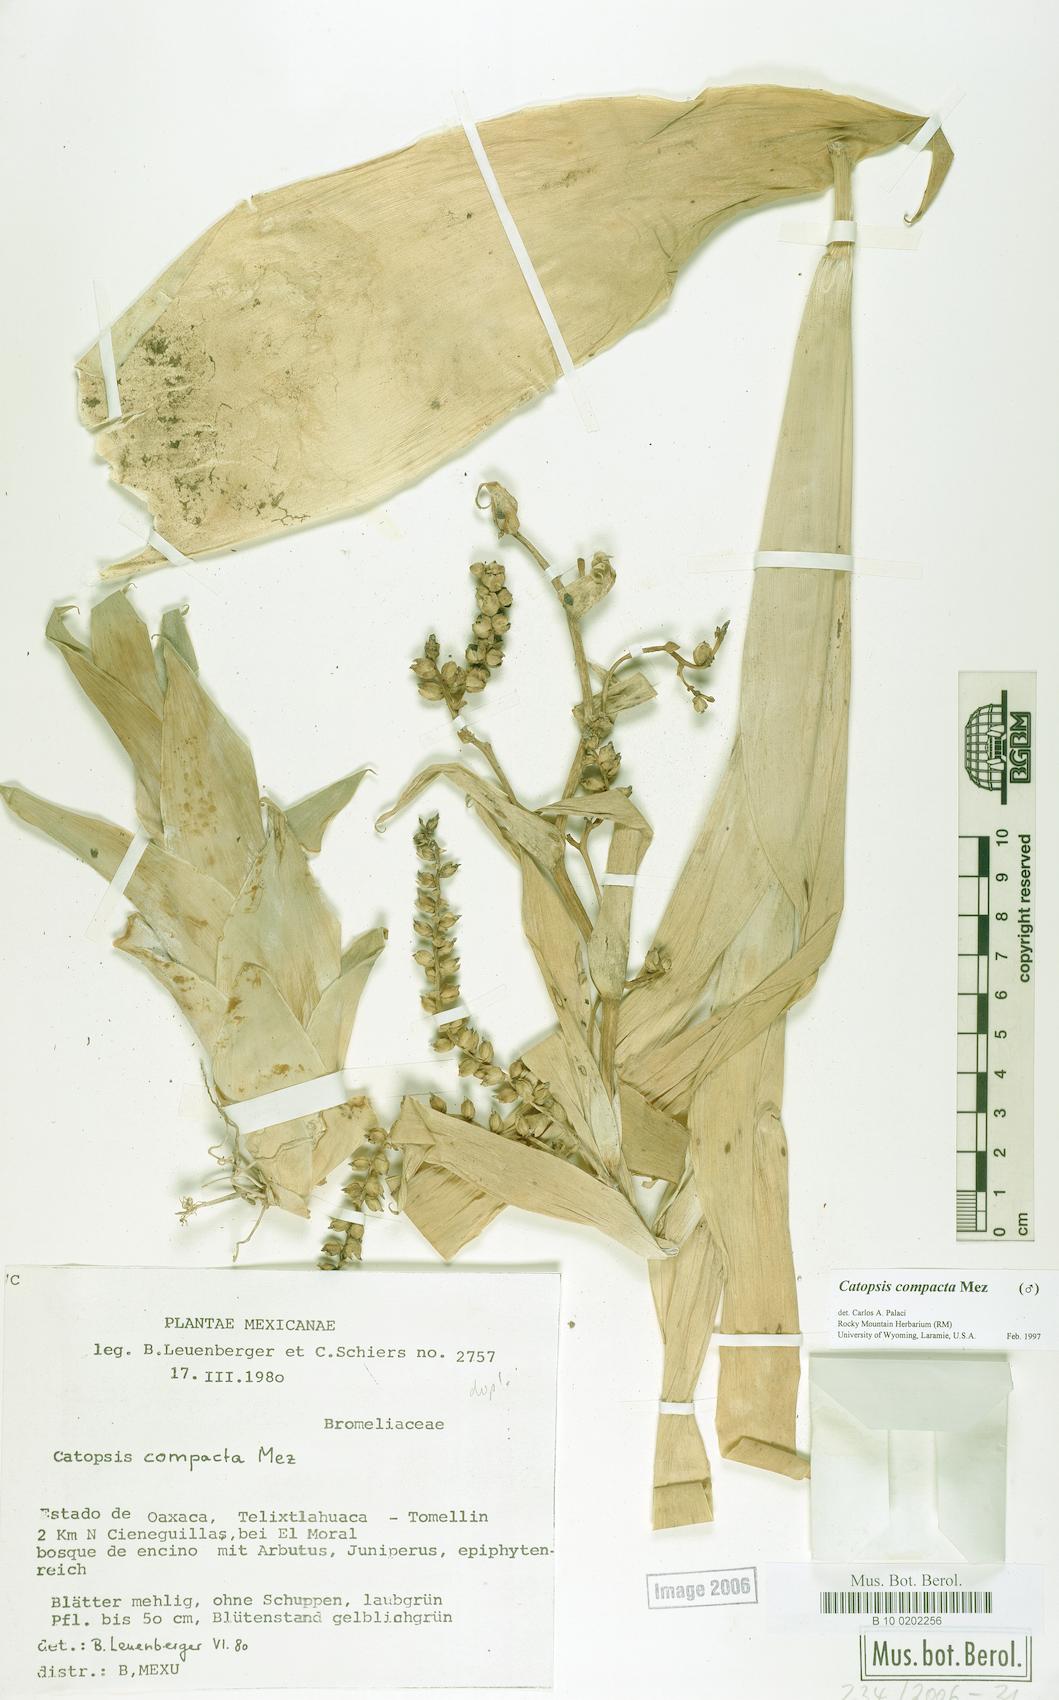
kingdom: Plantae
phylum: Tracheophyta
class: Liliopsida
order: Poales
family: Bromeliaceae
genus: Catopsis
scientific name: Catopsis compacta
